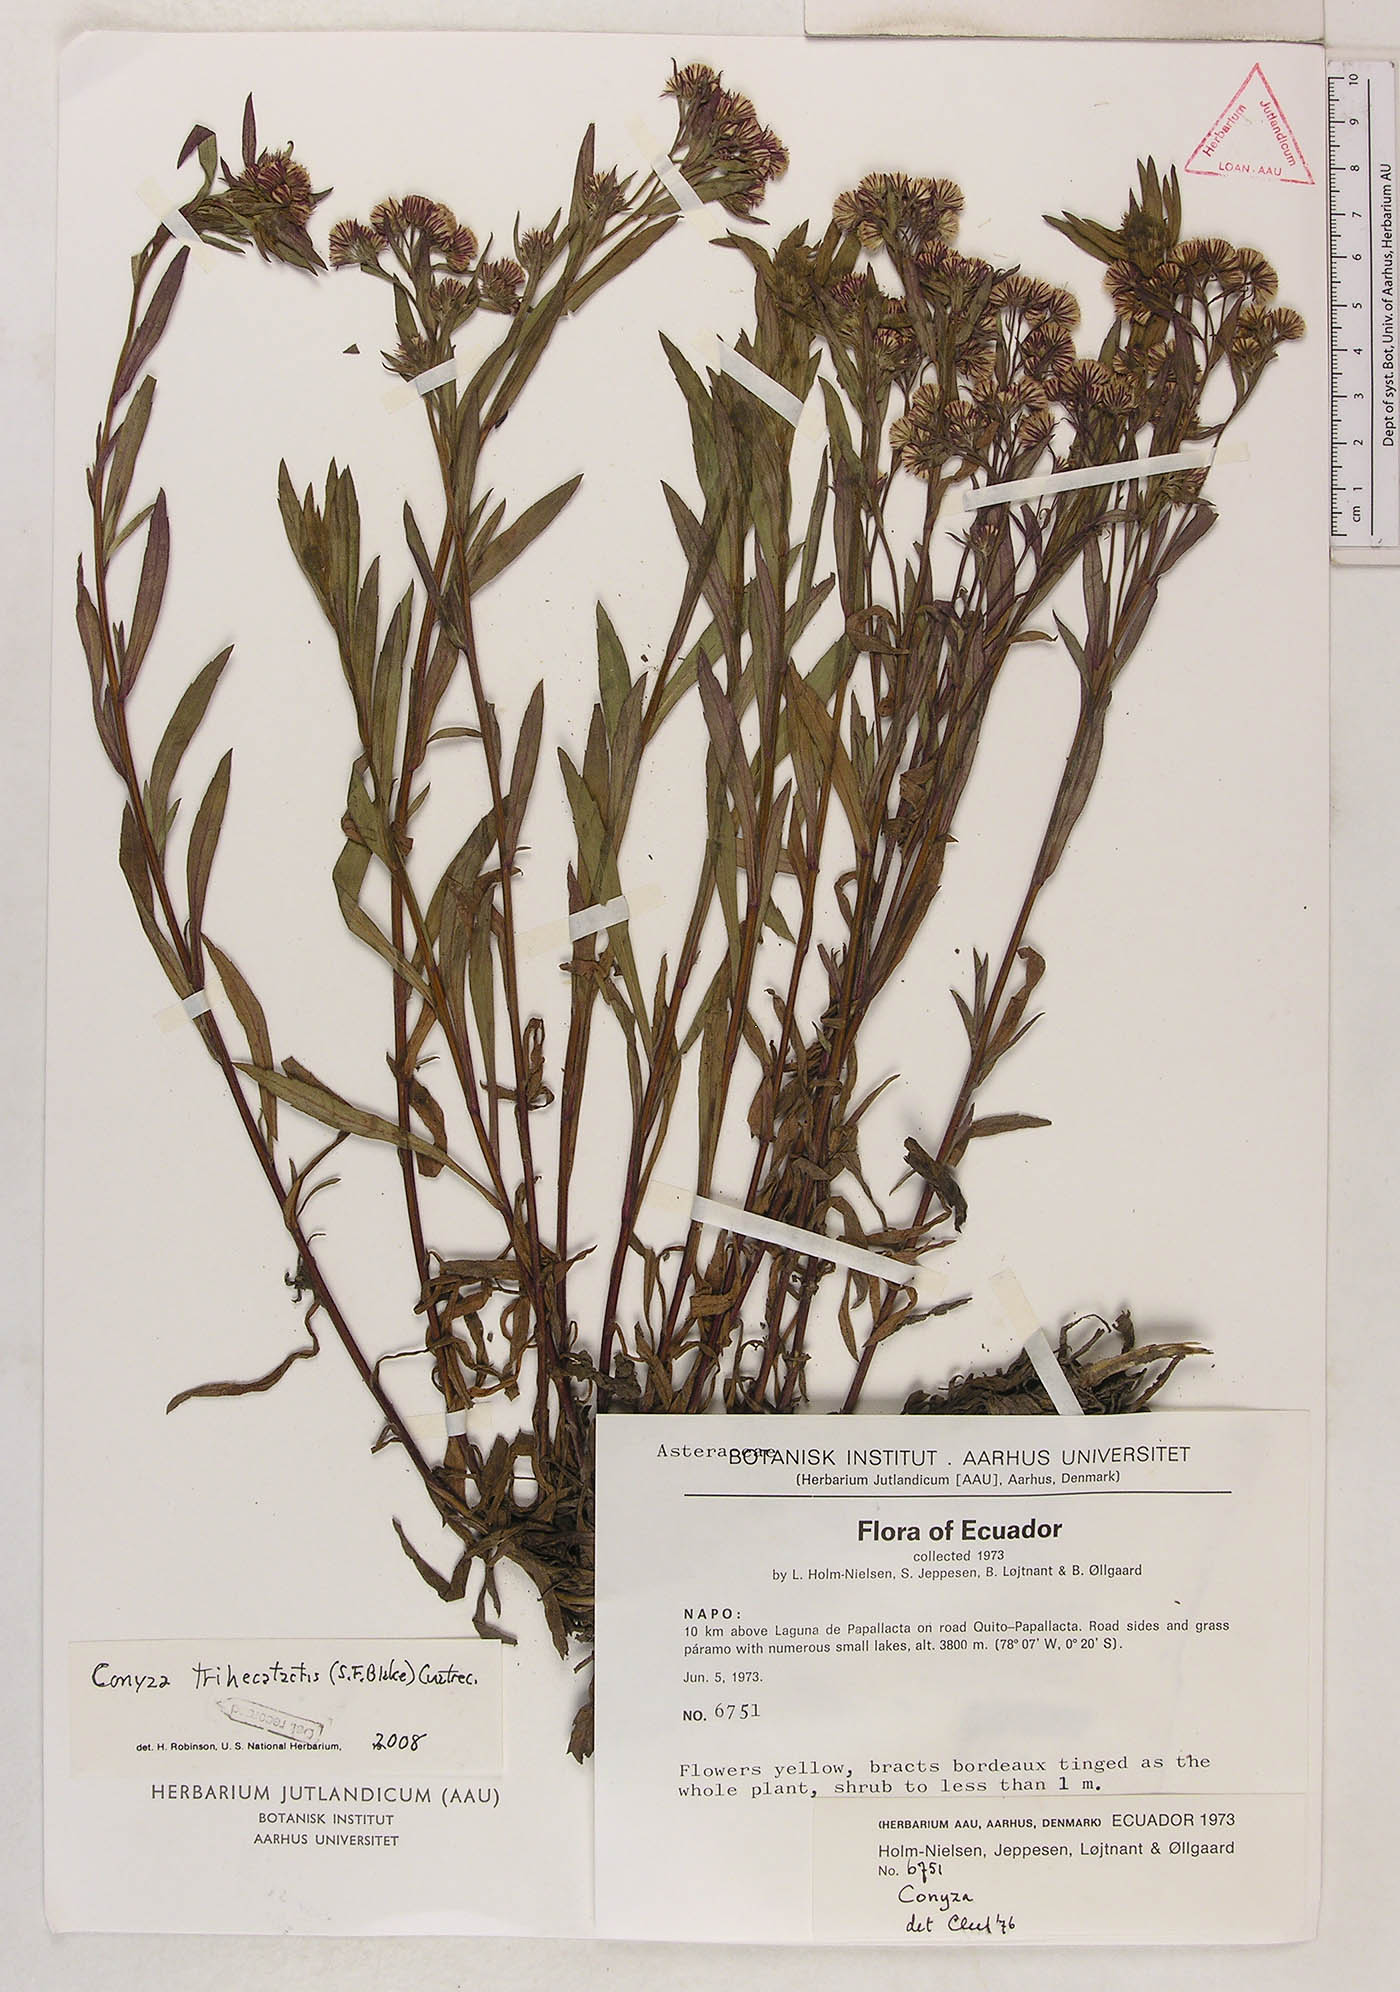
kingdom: Plantae
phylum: Tracheophyta
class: Magnoliopsida
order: Asterales
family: Asteraceae
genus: Erigeron
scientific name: Erigeron trihecatactis
